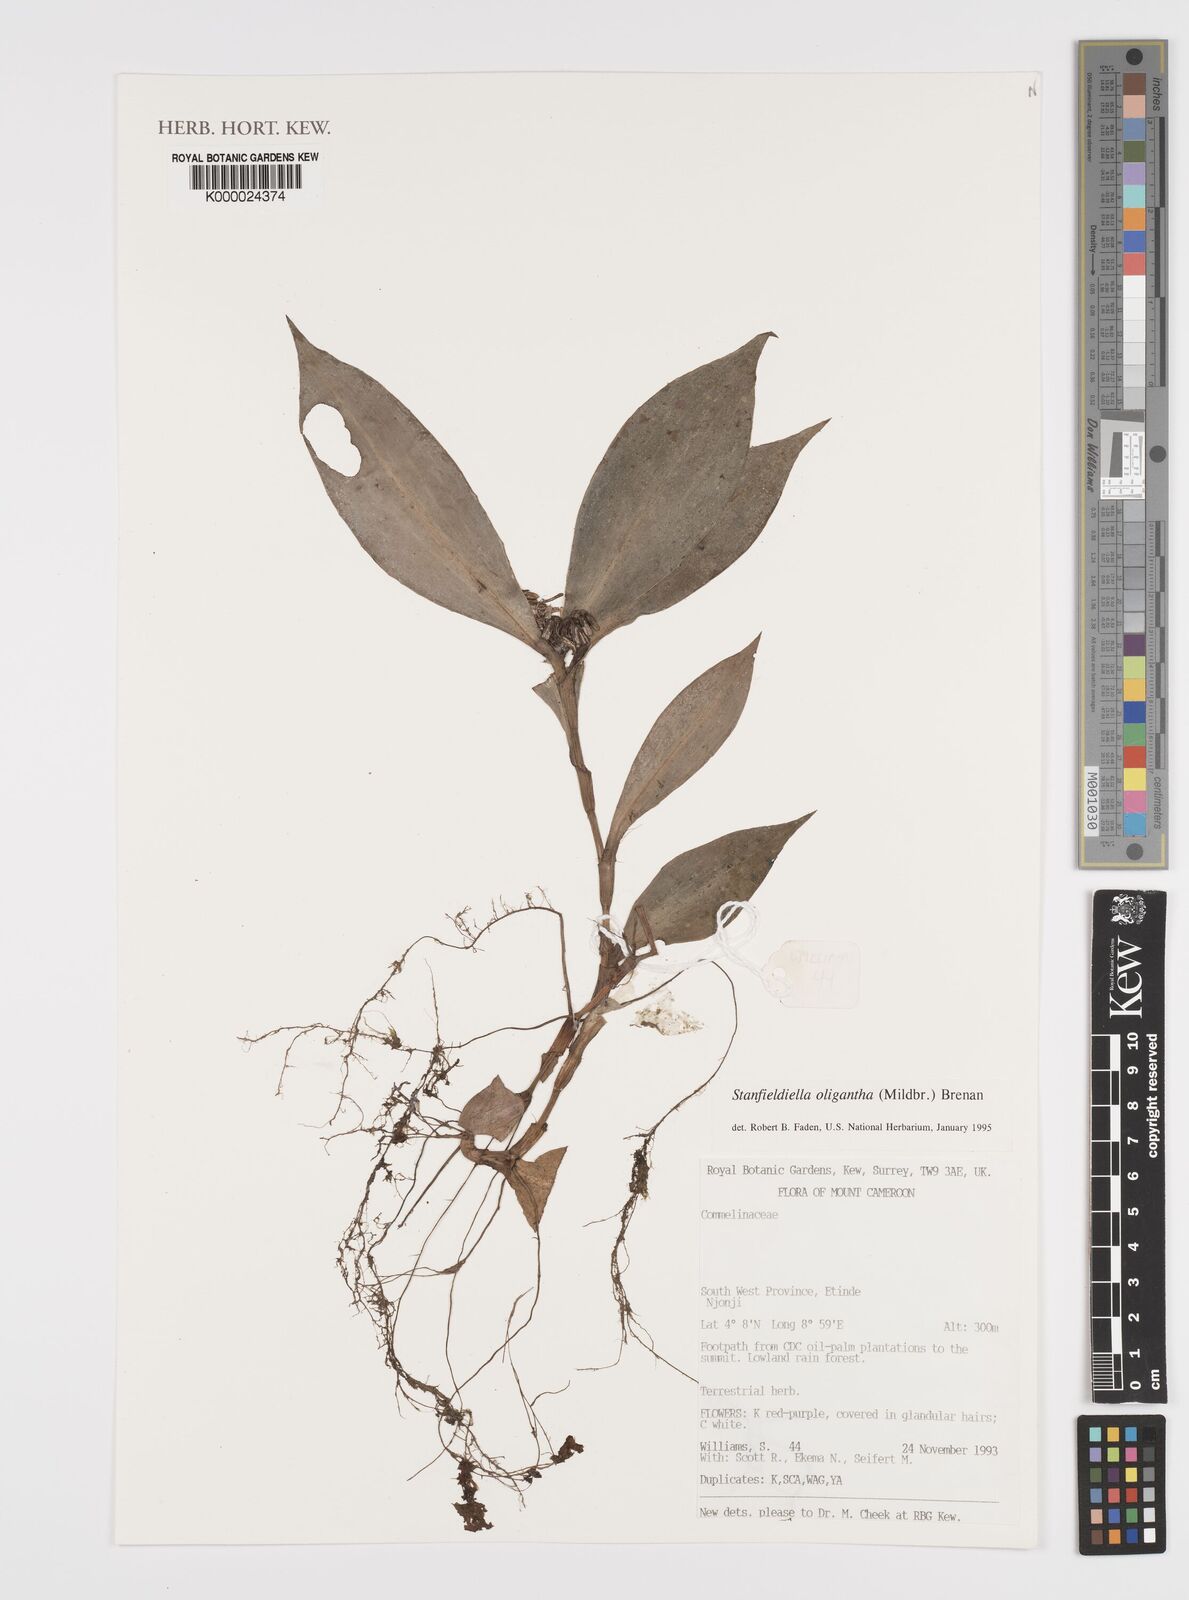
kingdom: Plantae
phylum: Tracheophyta
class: Liliopsida
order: Commelinales
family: Commelinaceae
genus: Stanfieldiella
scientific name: Stanfieldiella oligantha
